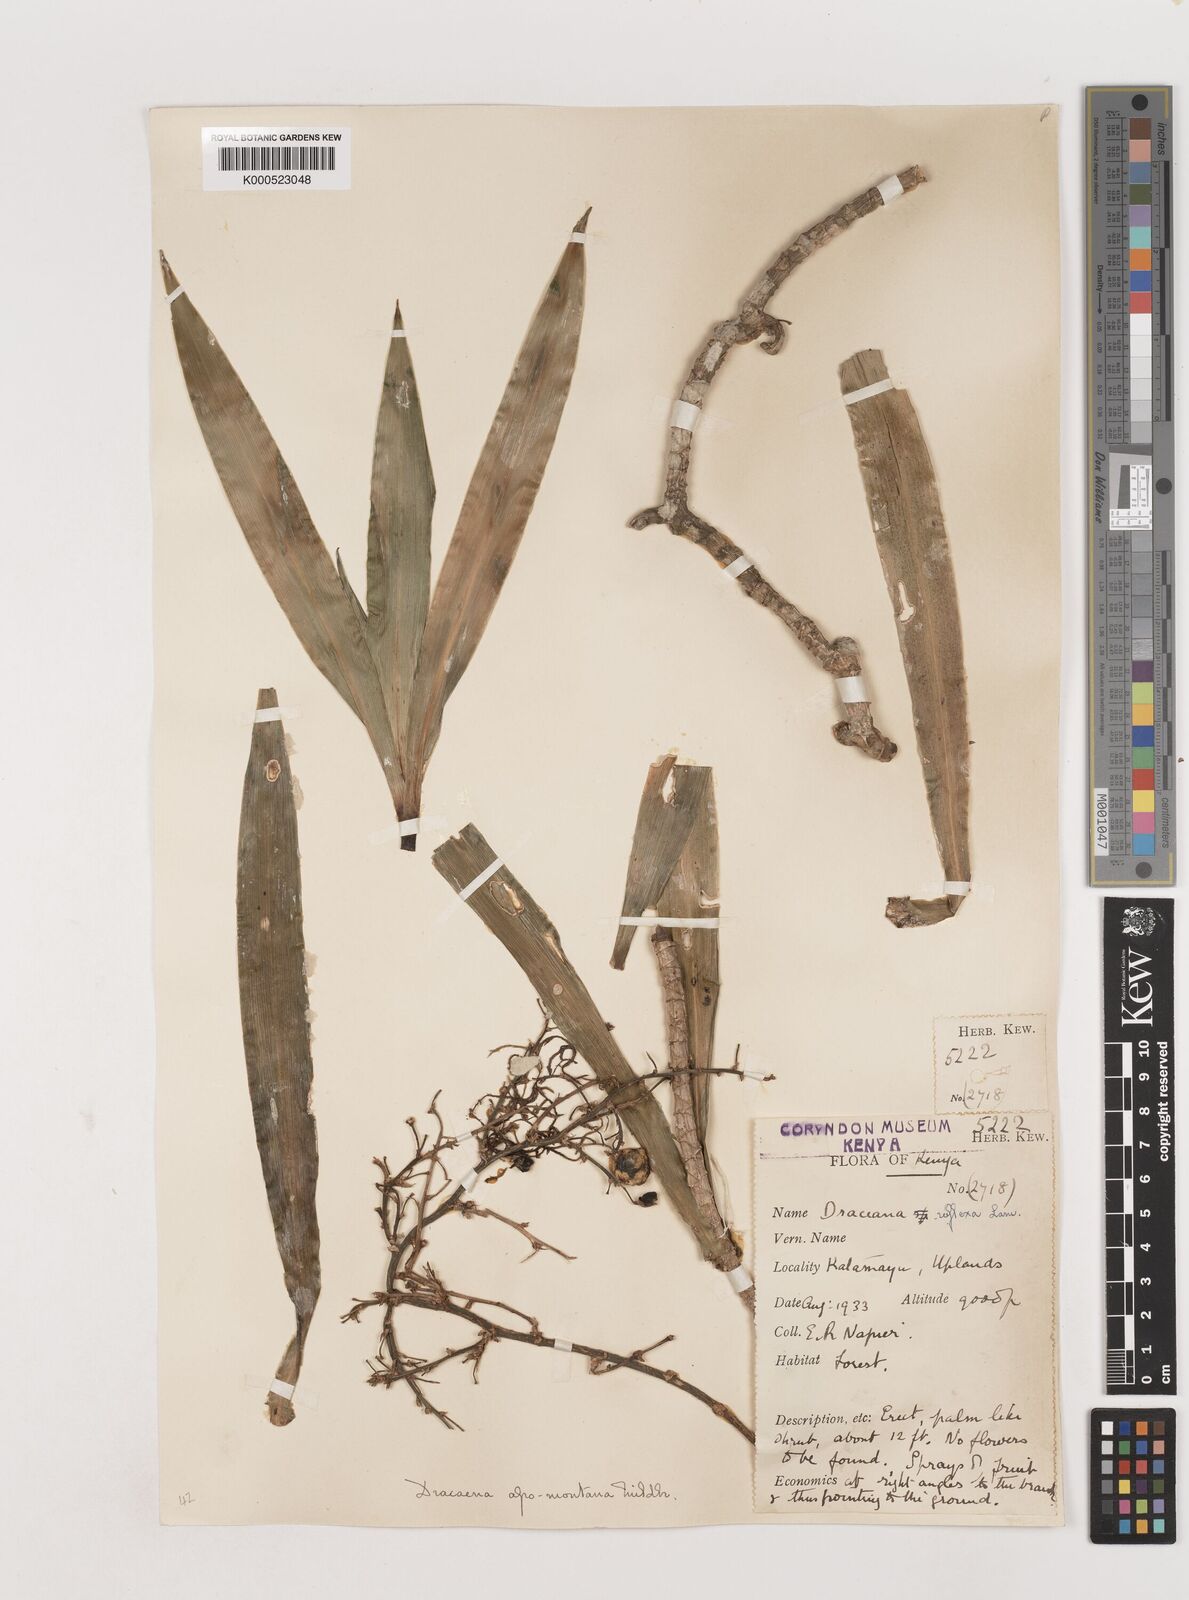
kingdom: Plantae
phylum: Tracheophyta
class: Liliopsida
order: Asparagales
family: Asparagaceae
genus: Dracaena
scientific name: Dracaena afromontana
